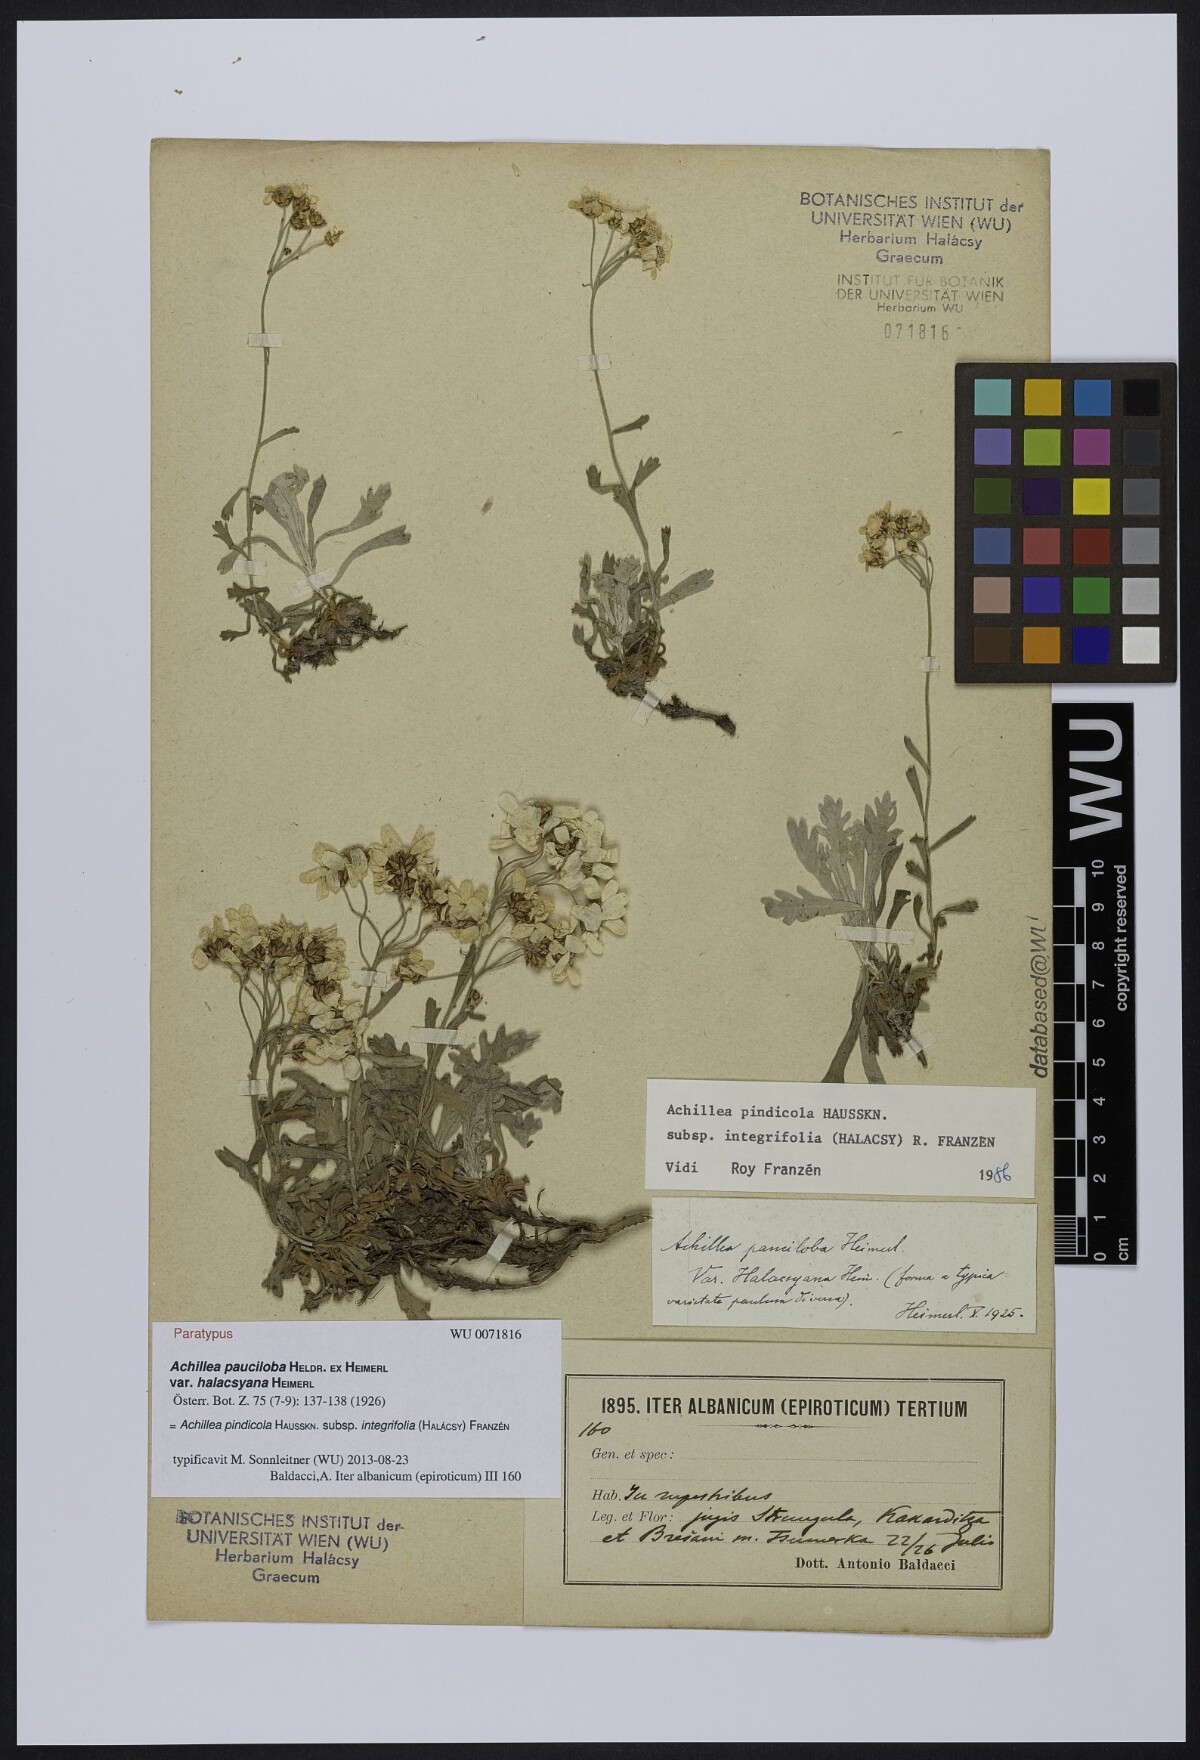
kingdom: Plantae
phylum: Tracheophyta
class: Magnoliopsida
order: Asterales
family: Asteraceae
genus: Achillea
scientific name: Achillea pindicola
